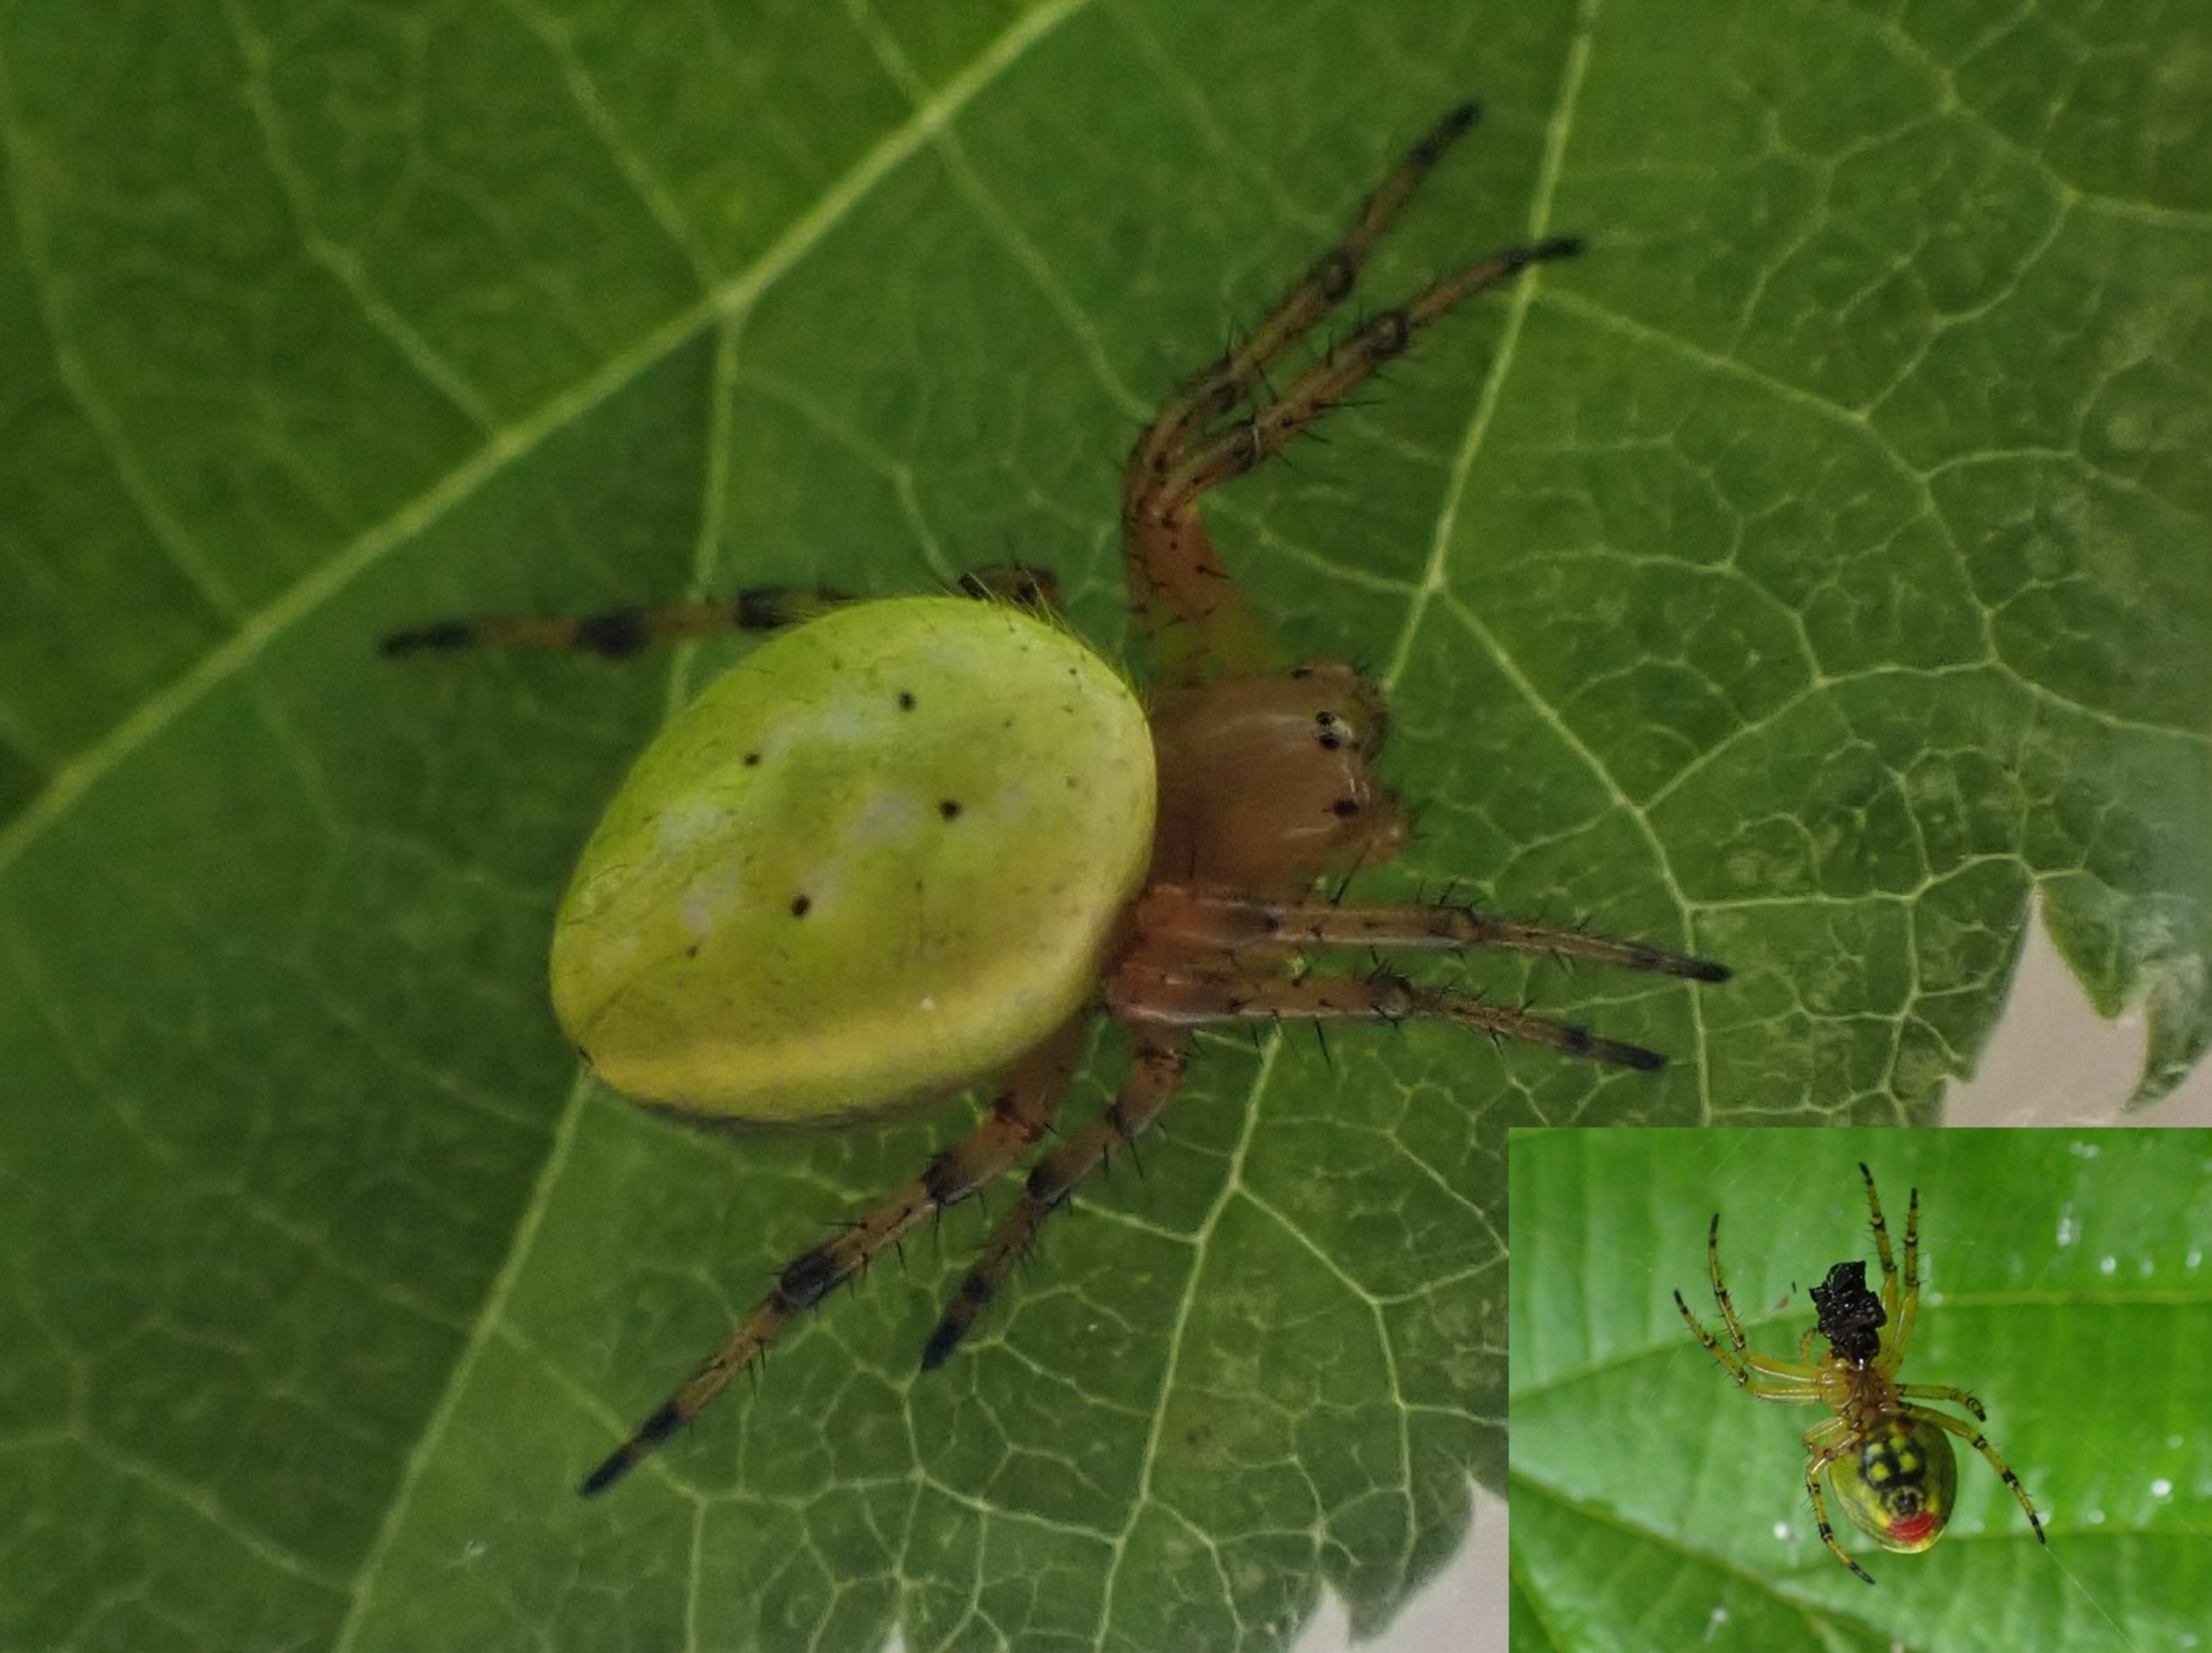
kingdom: Animalia
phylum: Arthropoda
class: Arachnida
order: Araneae
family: Araneidae
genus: Araniella
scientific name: Araniella alpica
